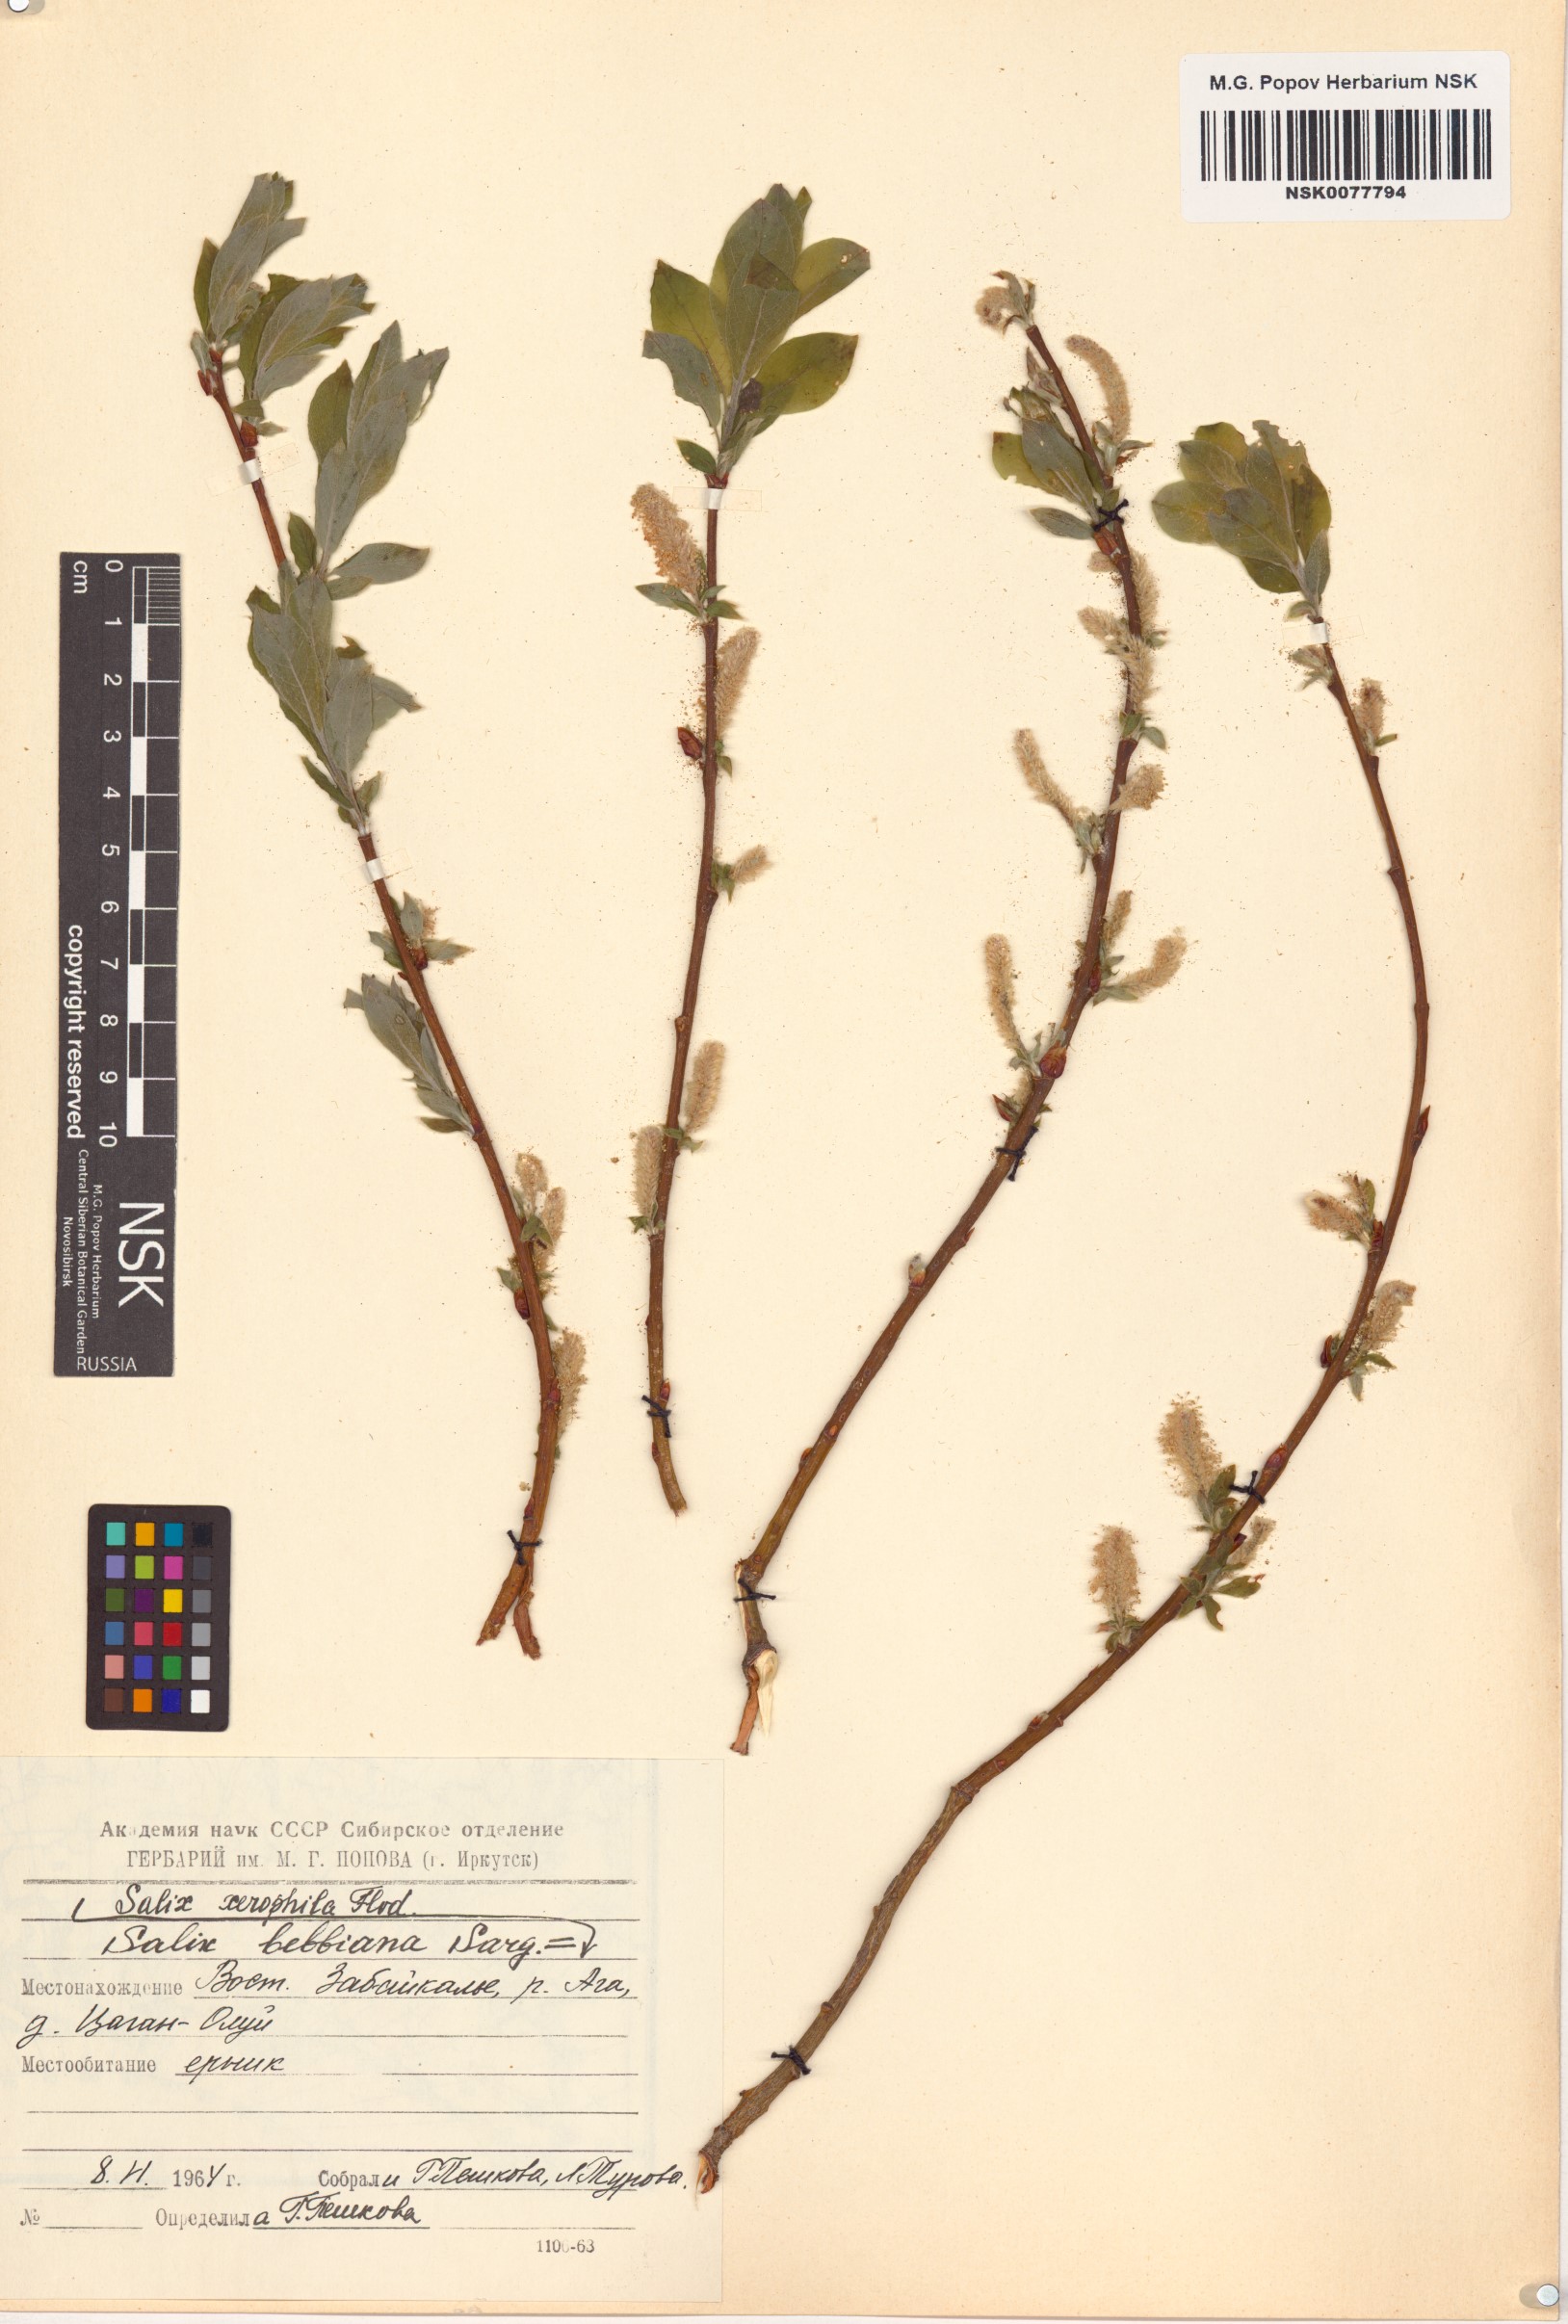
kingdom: Plantae
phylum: Tracheophyta
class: Magnoliopsida
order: Malpighiales
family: Salicaceae
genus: Salix
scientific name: Salix bebbiana
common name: Bebb's willow
